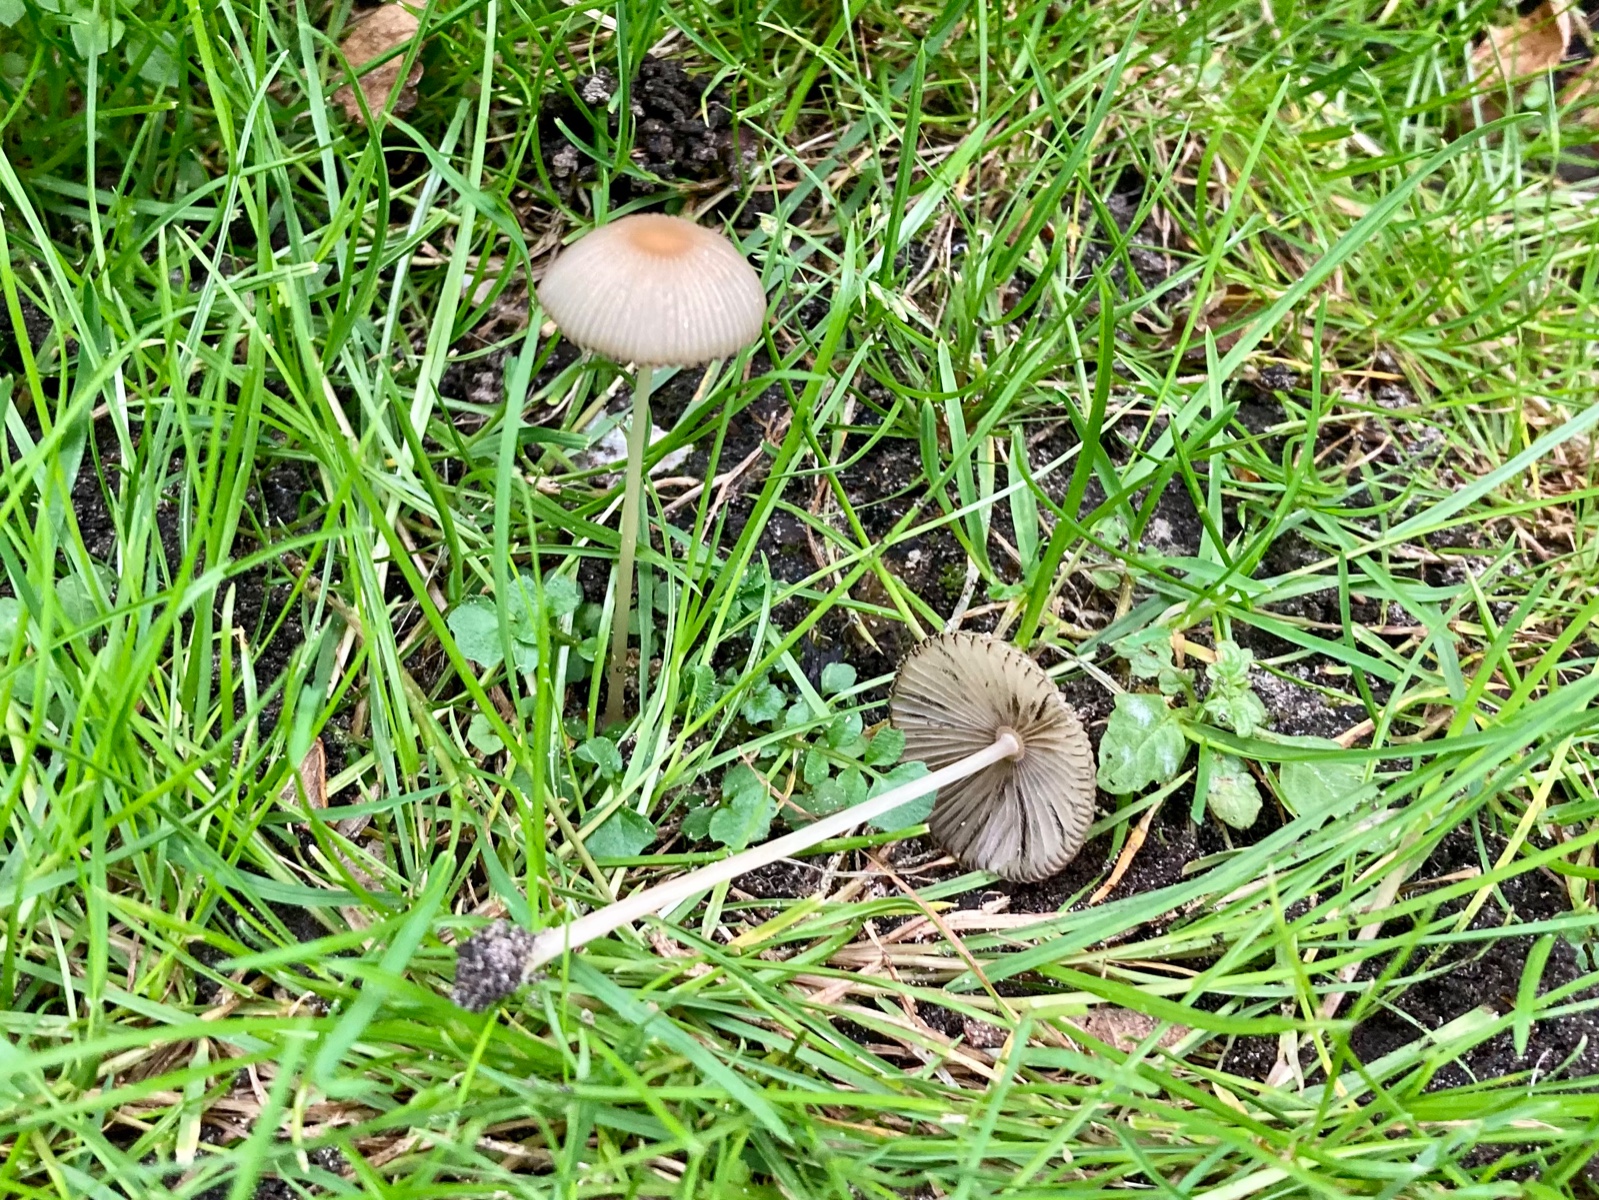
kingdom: Fungi
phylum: Basidiomycota
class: Agaricomycetes
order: Agaricales
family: Psathyrellaceae
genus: Parasola
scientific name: Parasola
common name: hjulhat
